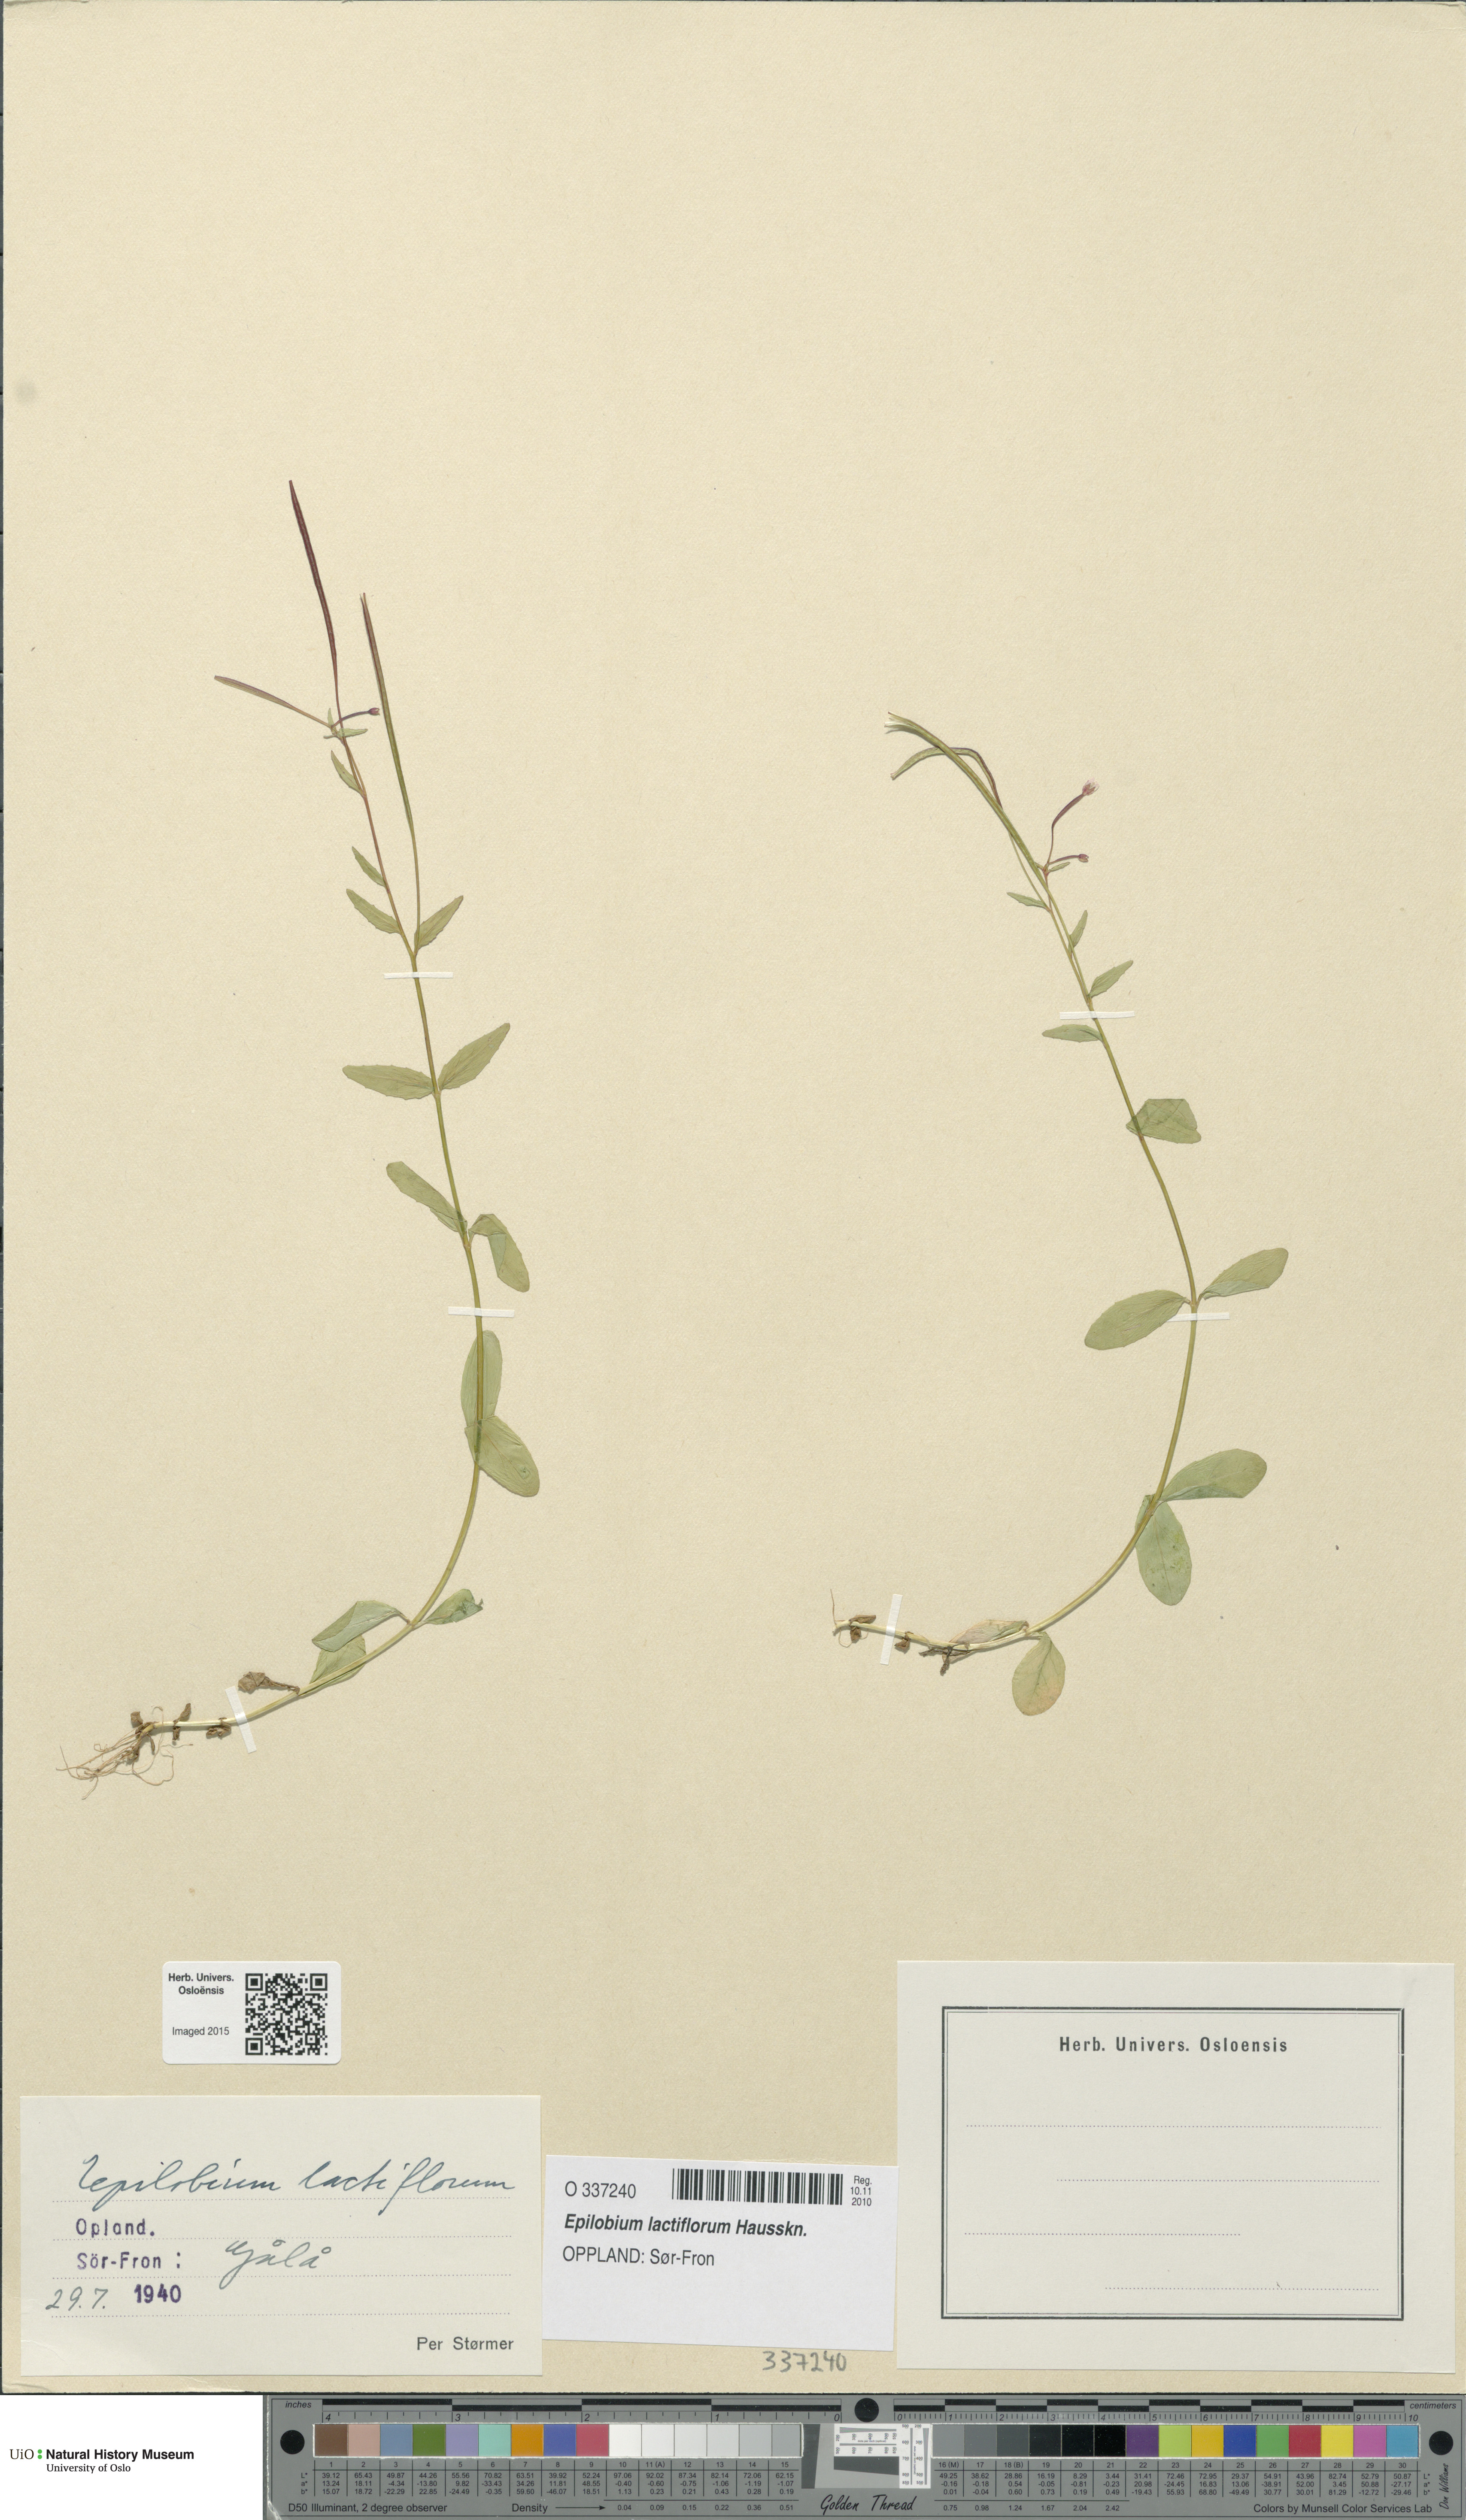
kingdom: Plantae
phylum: Tracheophyta
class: Magnoliopsida
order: Myrtales
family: Onagraceae
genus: Epilobium
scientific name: Epilobium lactiflorum
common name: Milkflower willowherb
